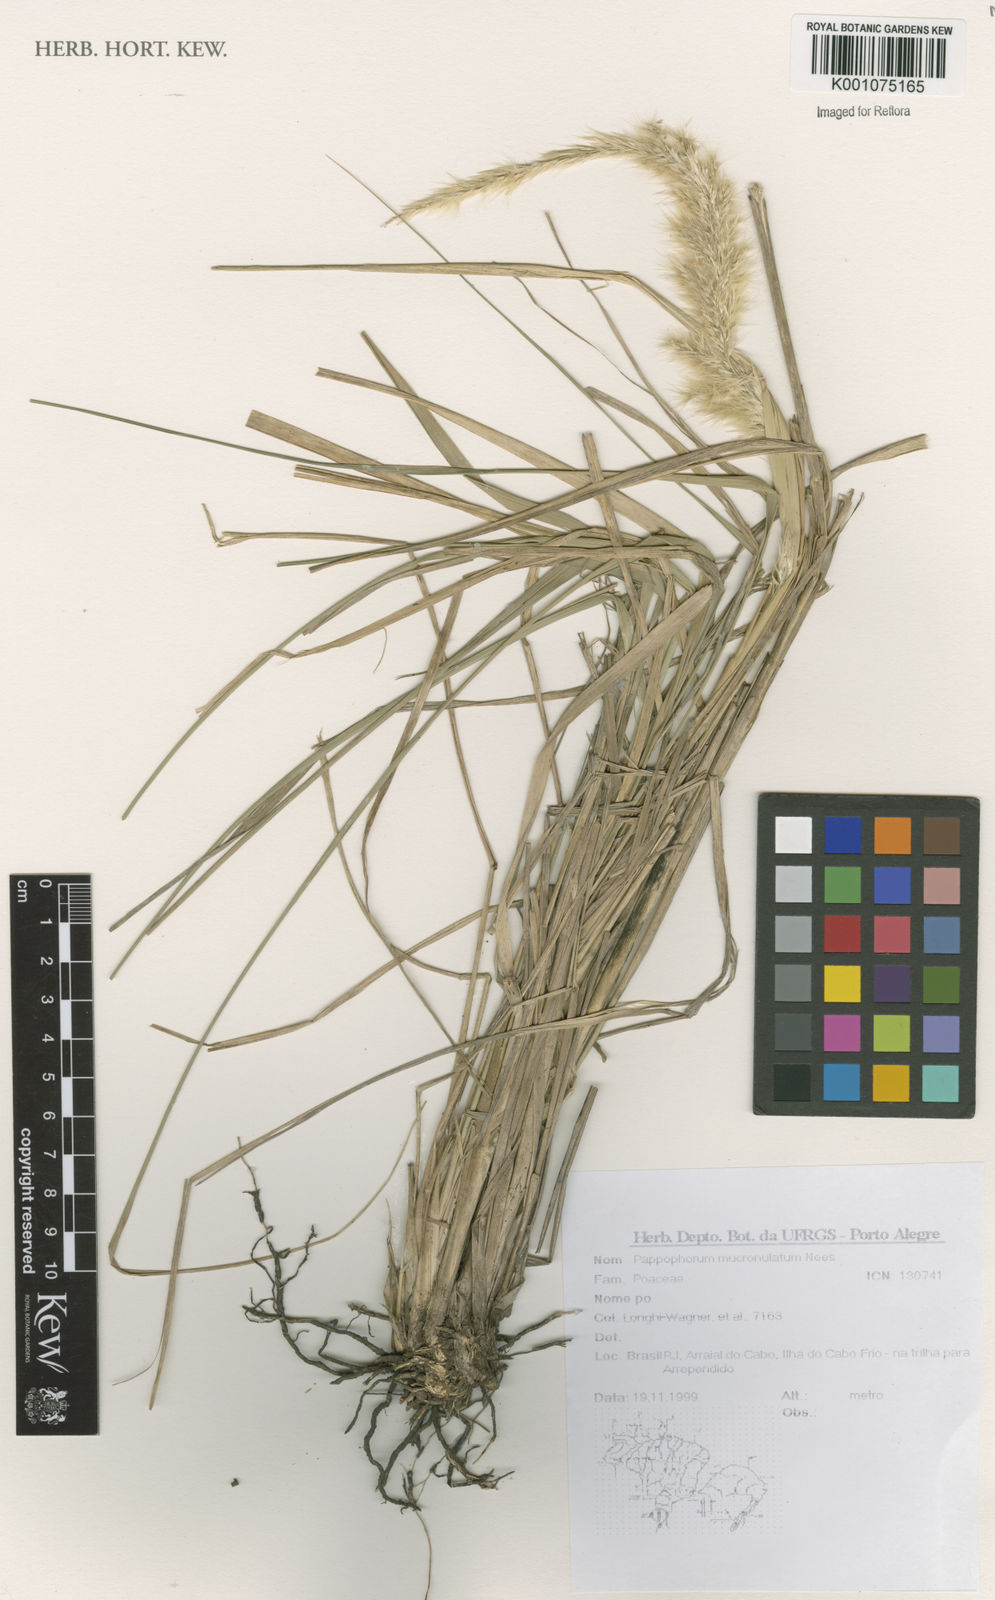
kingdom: Plantae
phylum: Tracheophyta
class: Liliopsida
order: Poales
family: Poaceae
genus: Pappophorum
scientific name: Pappophorum mucronulatum
